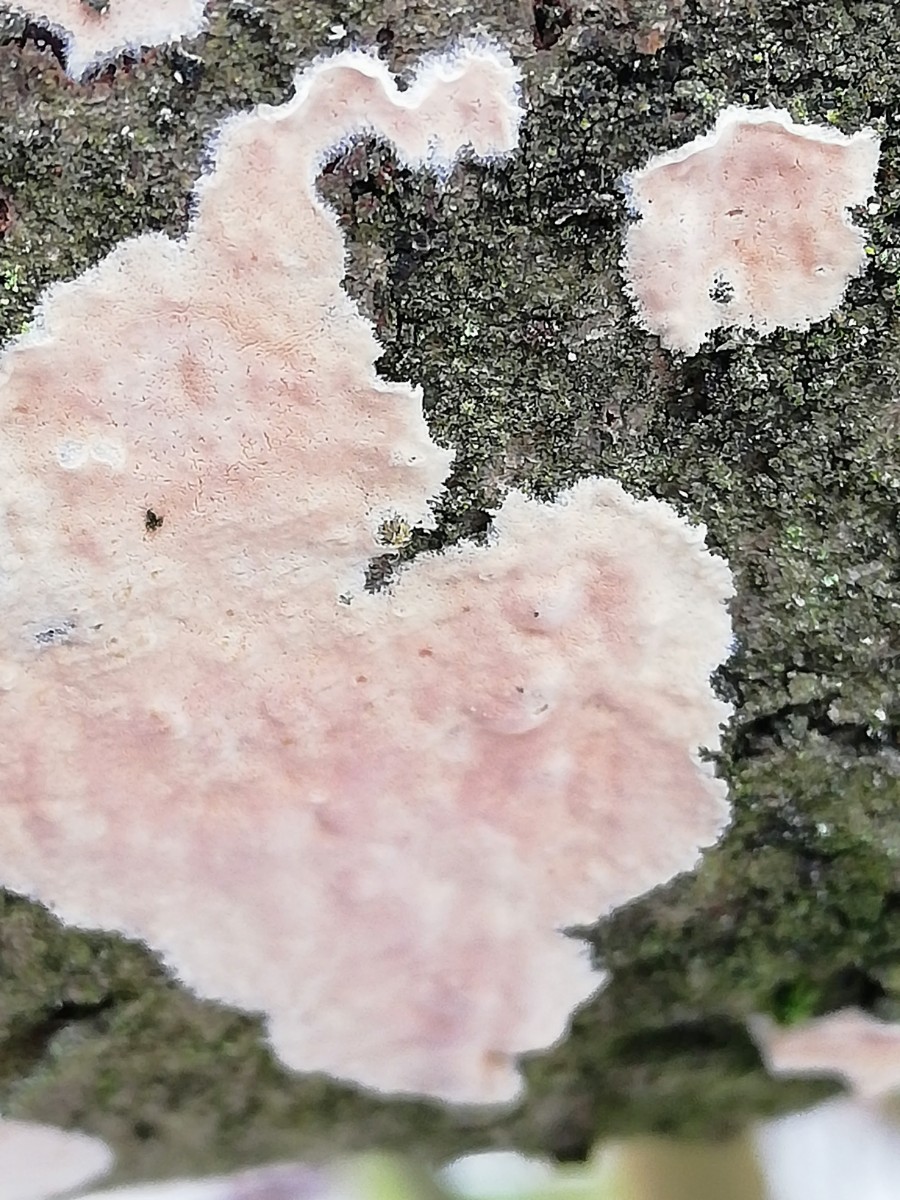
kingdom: Fungi
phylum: Basidiomycota
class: Agaricomycetes
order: Russulales
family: Peniophoraceae
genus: Peniophora
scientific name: Peniophora incarnata
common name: laksefarvet voksskind
